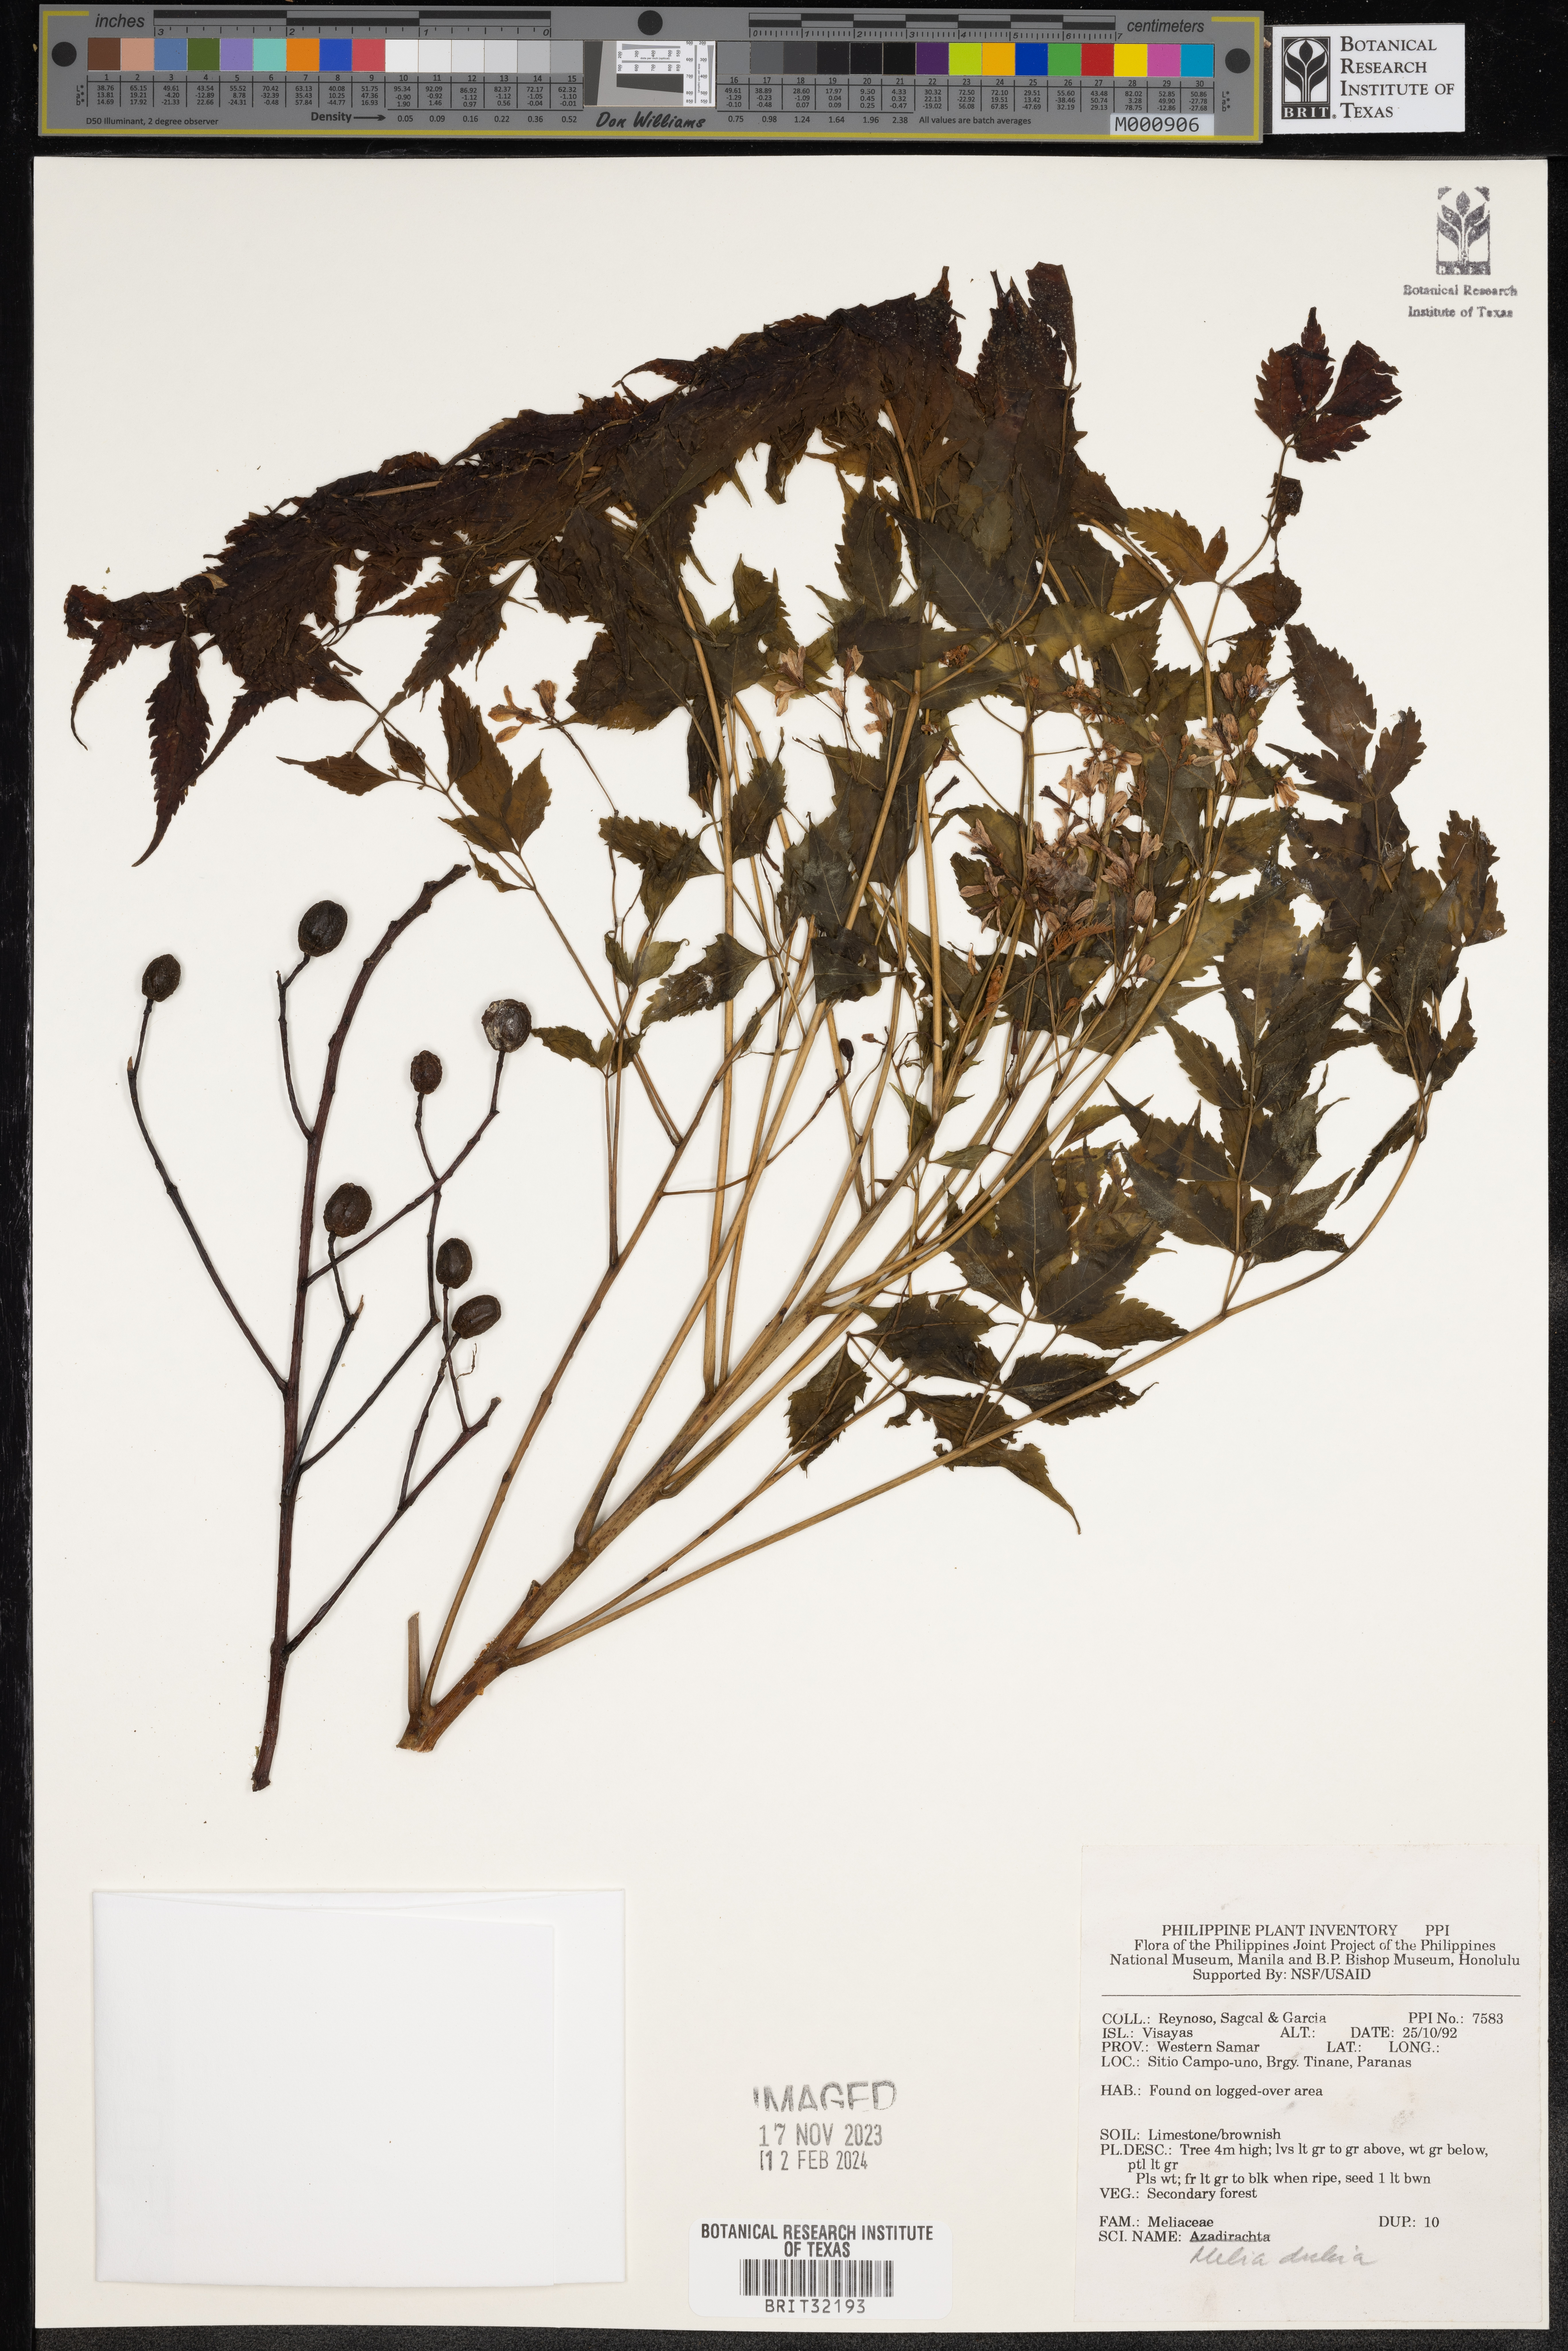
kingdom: Plantae
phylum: Tracheophyta
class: Magnoliopsida
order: Sapindales
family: Meliaceae
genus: Melia
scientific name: Melia azedarach
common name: Chinaberrytree
